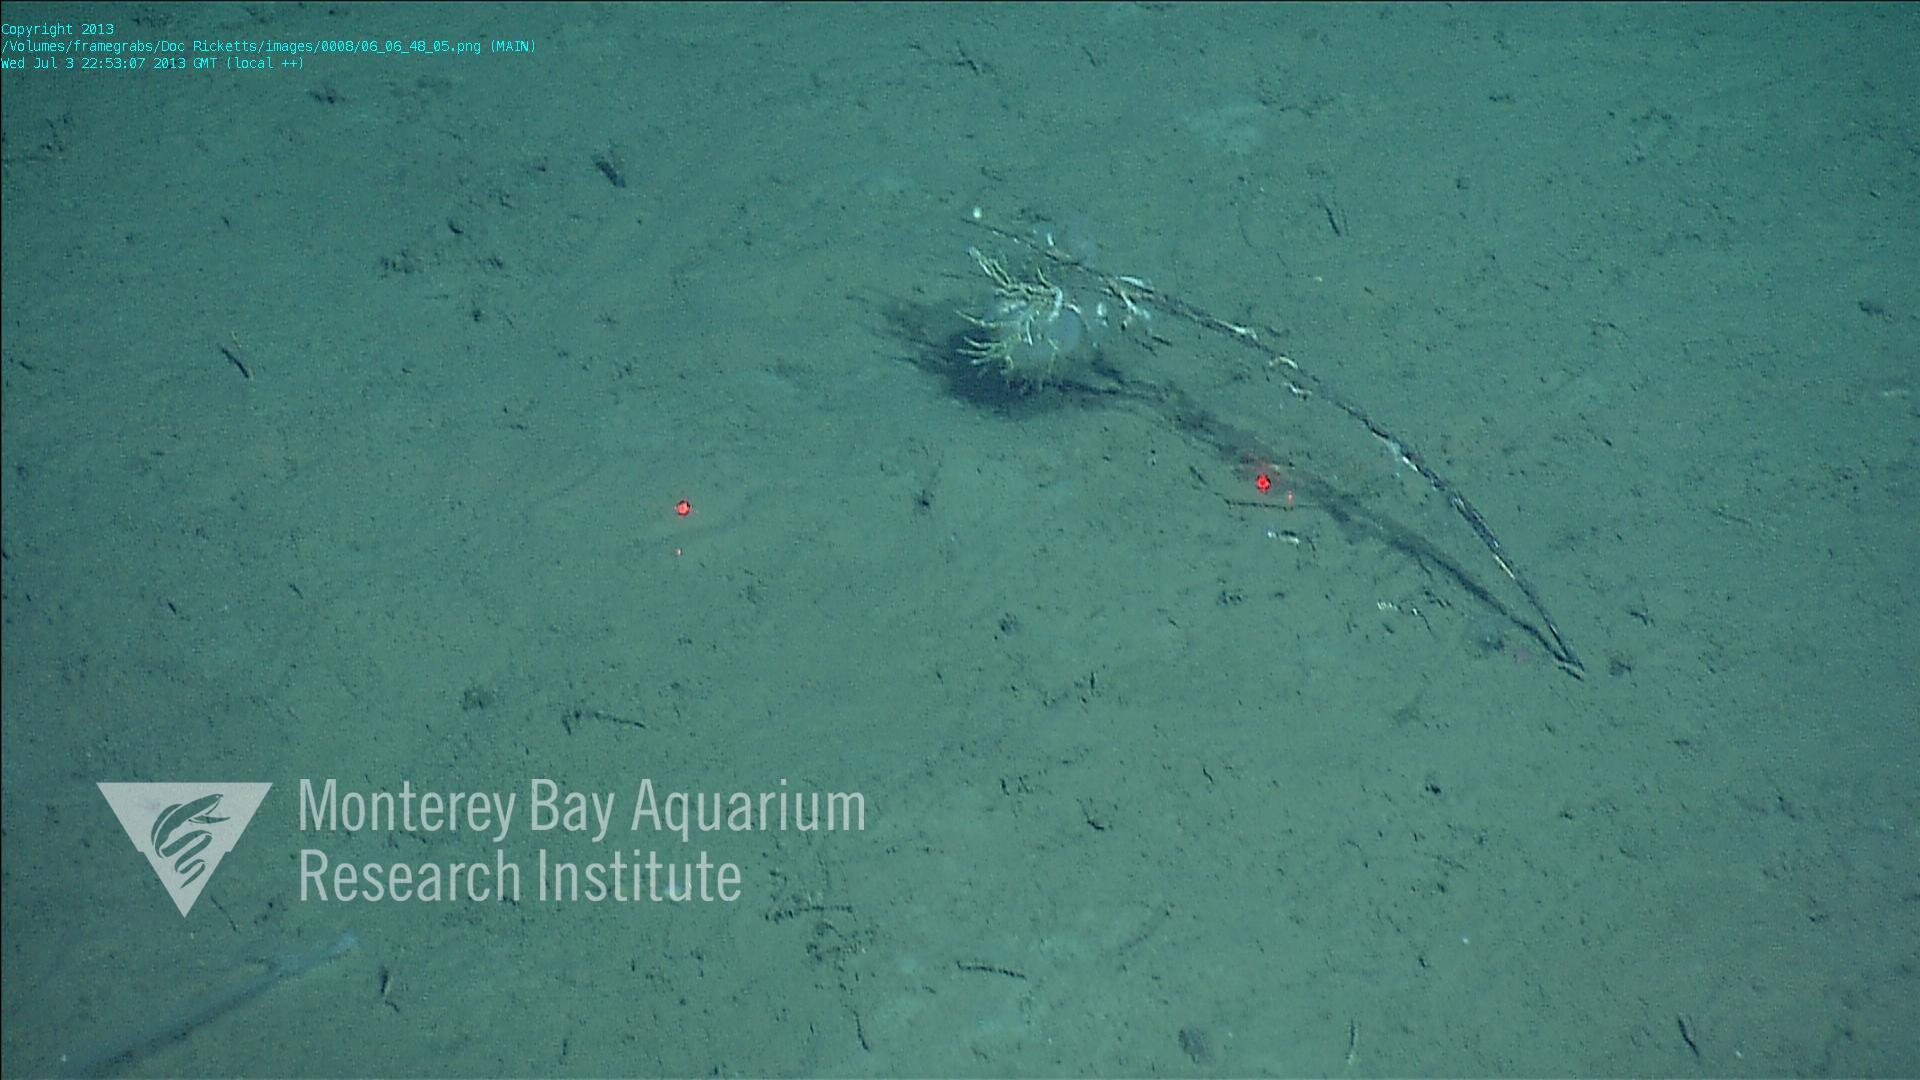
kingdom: Animalia
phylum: Porifera
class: Hexactinellida
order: Lyssacinosida
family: Rossellidae
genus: Bathydorus
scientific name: Bathydorus spinosus
